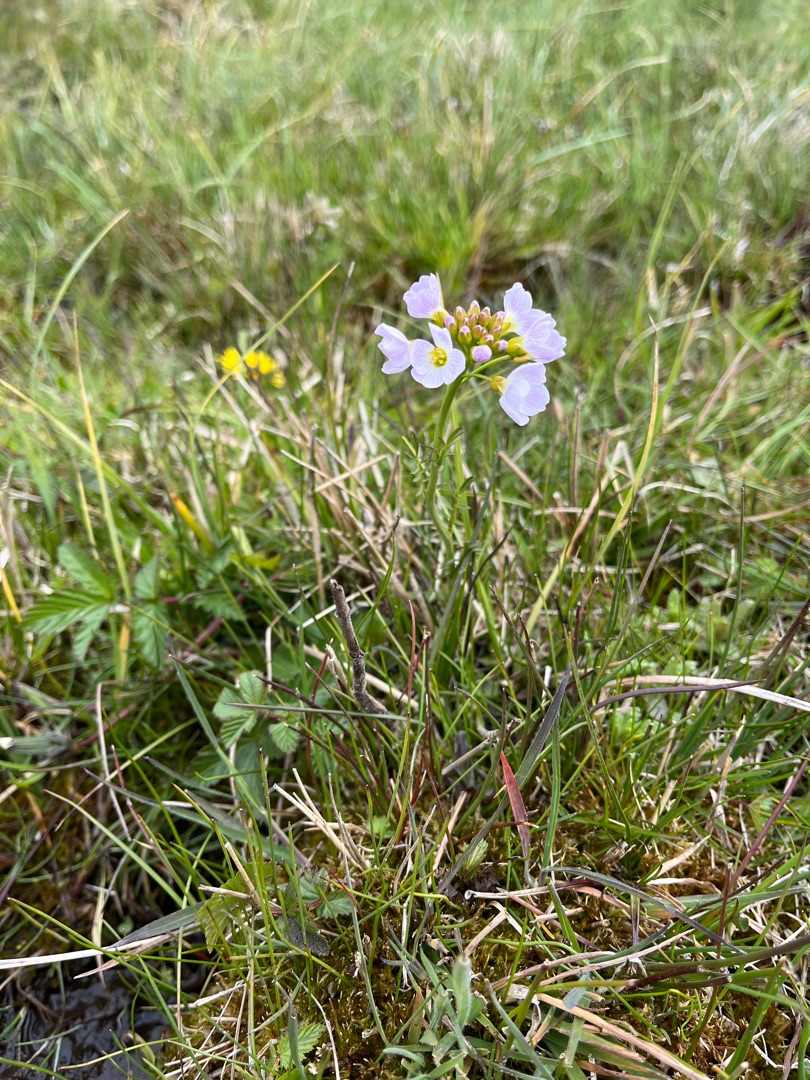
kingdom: Plantae
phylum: Tracheophyta
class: Magnoliopsida
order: Brassicales
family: Brassicaceae
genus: Cardamine
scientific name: Cardamine pratensis
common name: Engkarse
